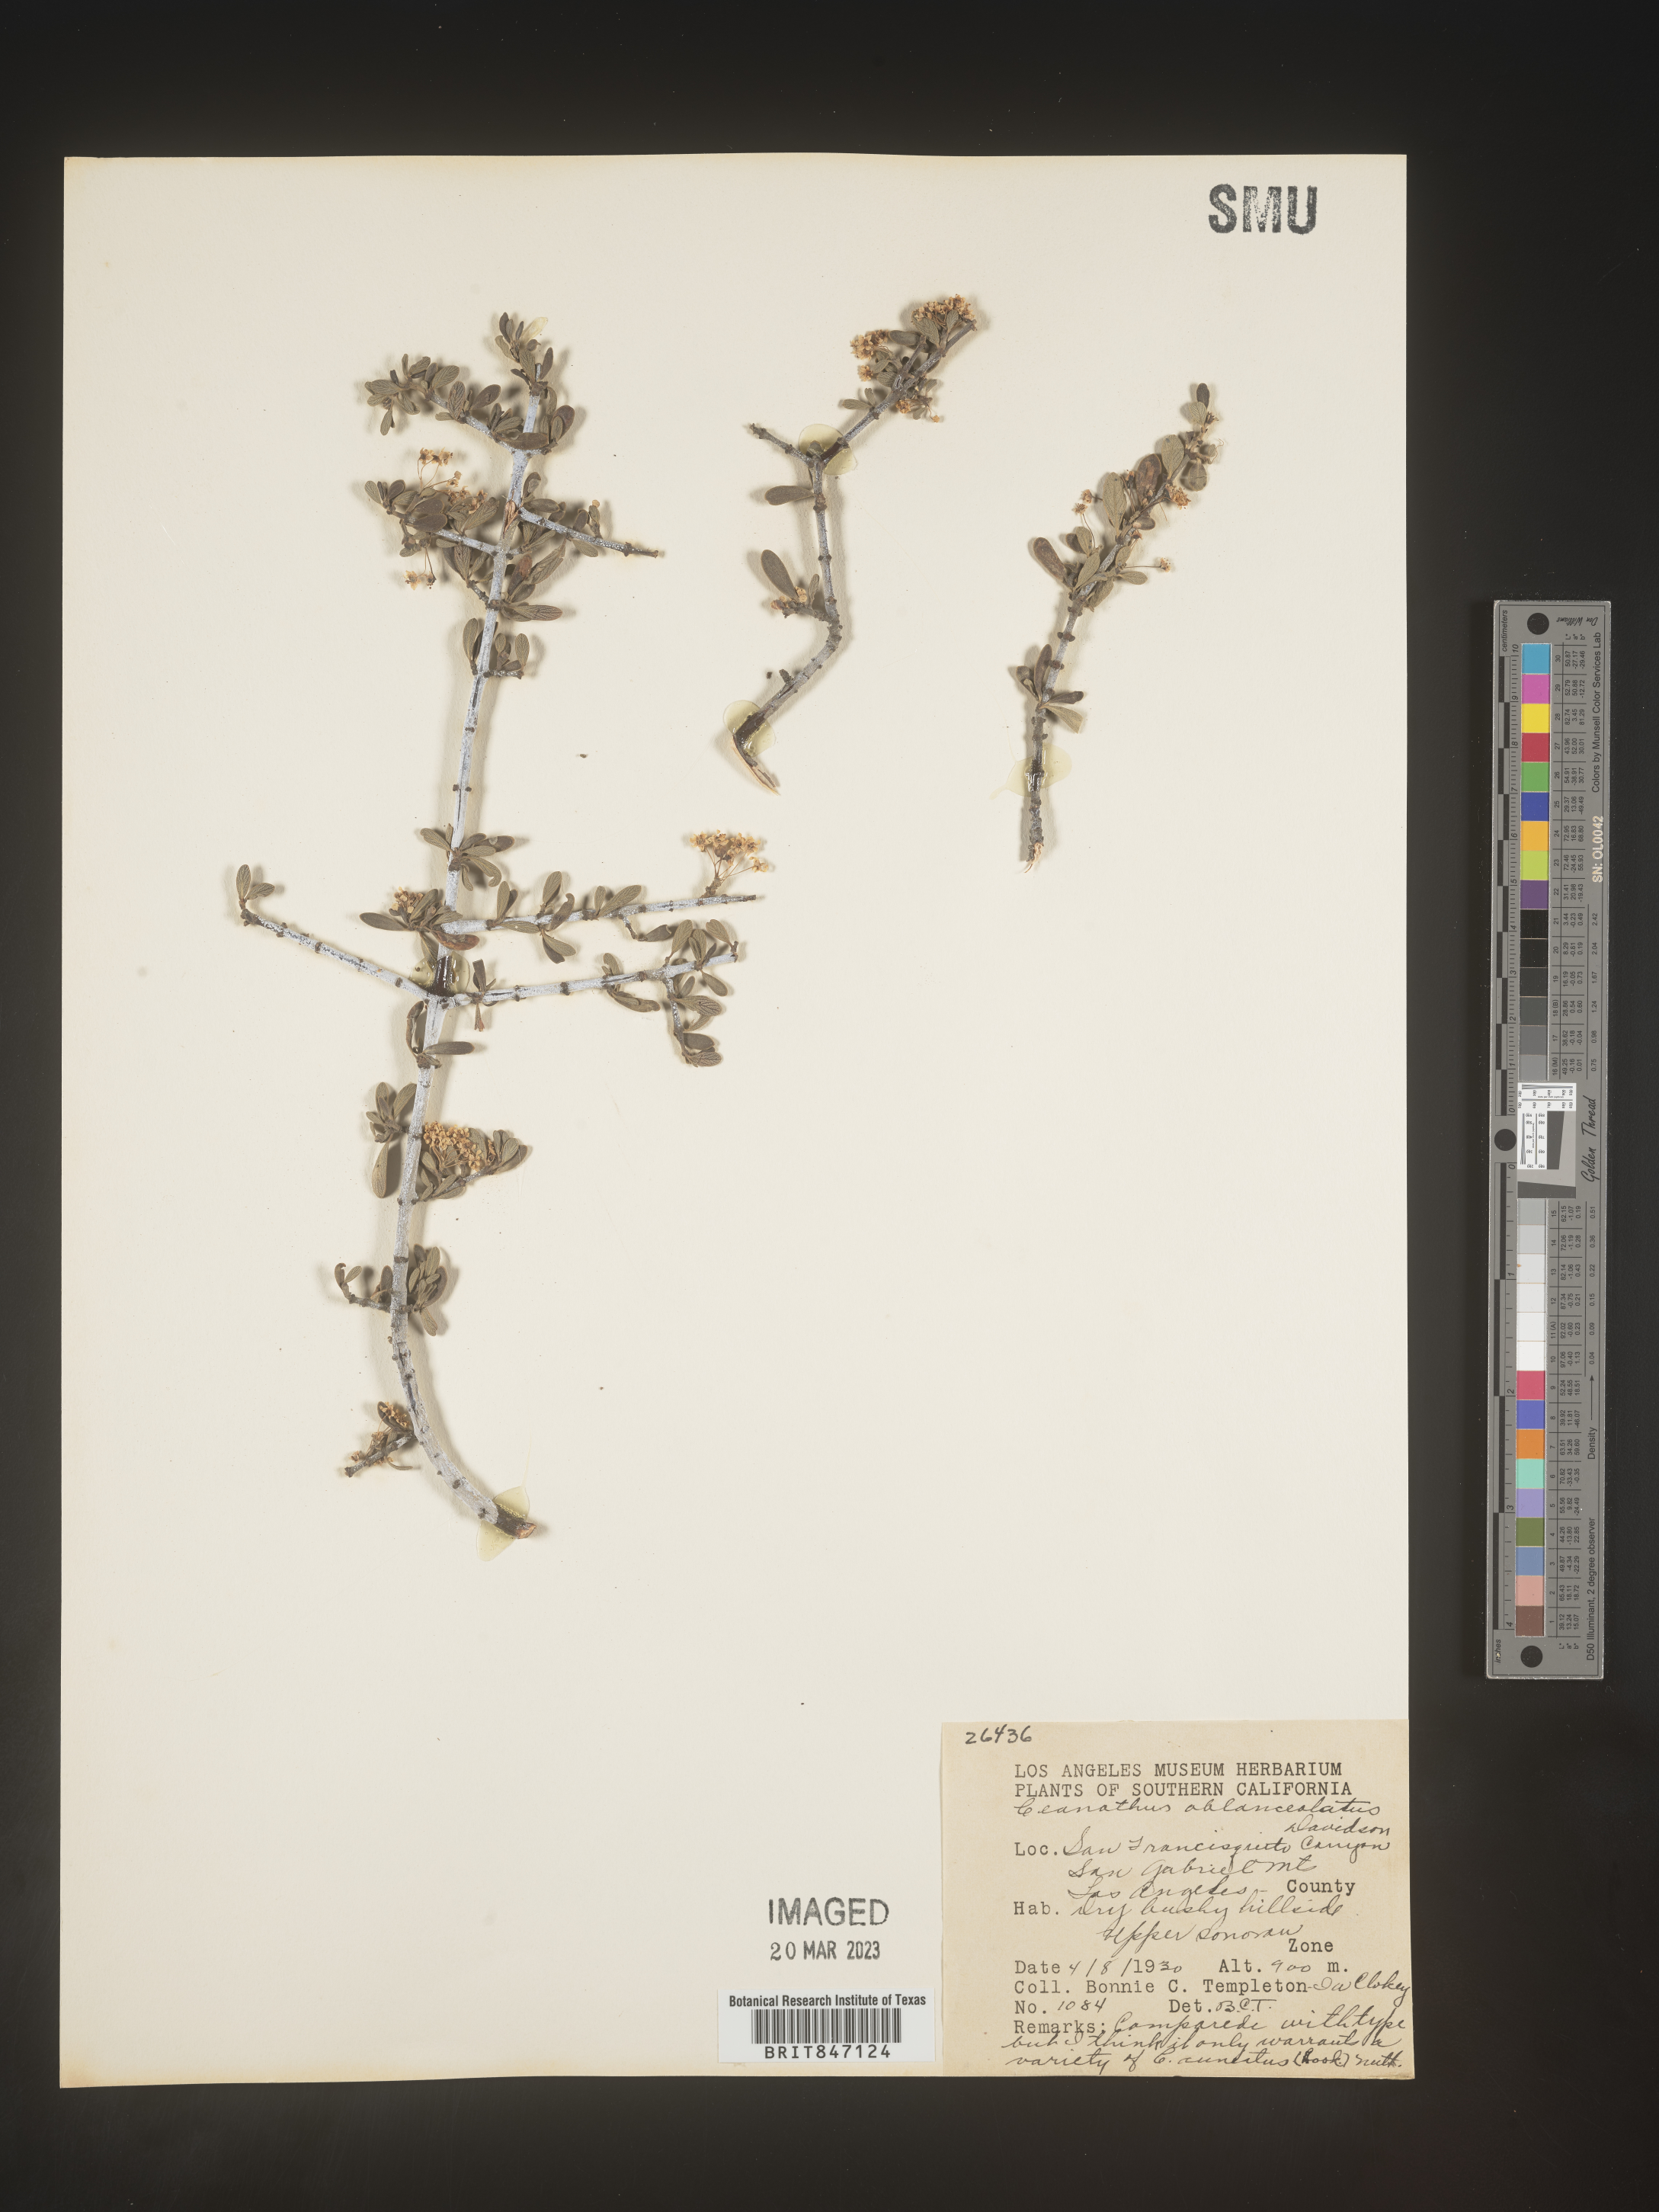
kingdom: Plantae
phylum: Tracheophyta
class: Magnoliopsida
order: Rosales
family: Rhamnaceae
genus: Ceanothus
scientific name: Ceanothus
